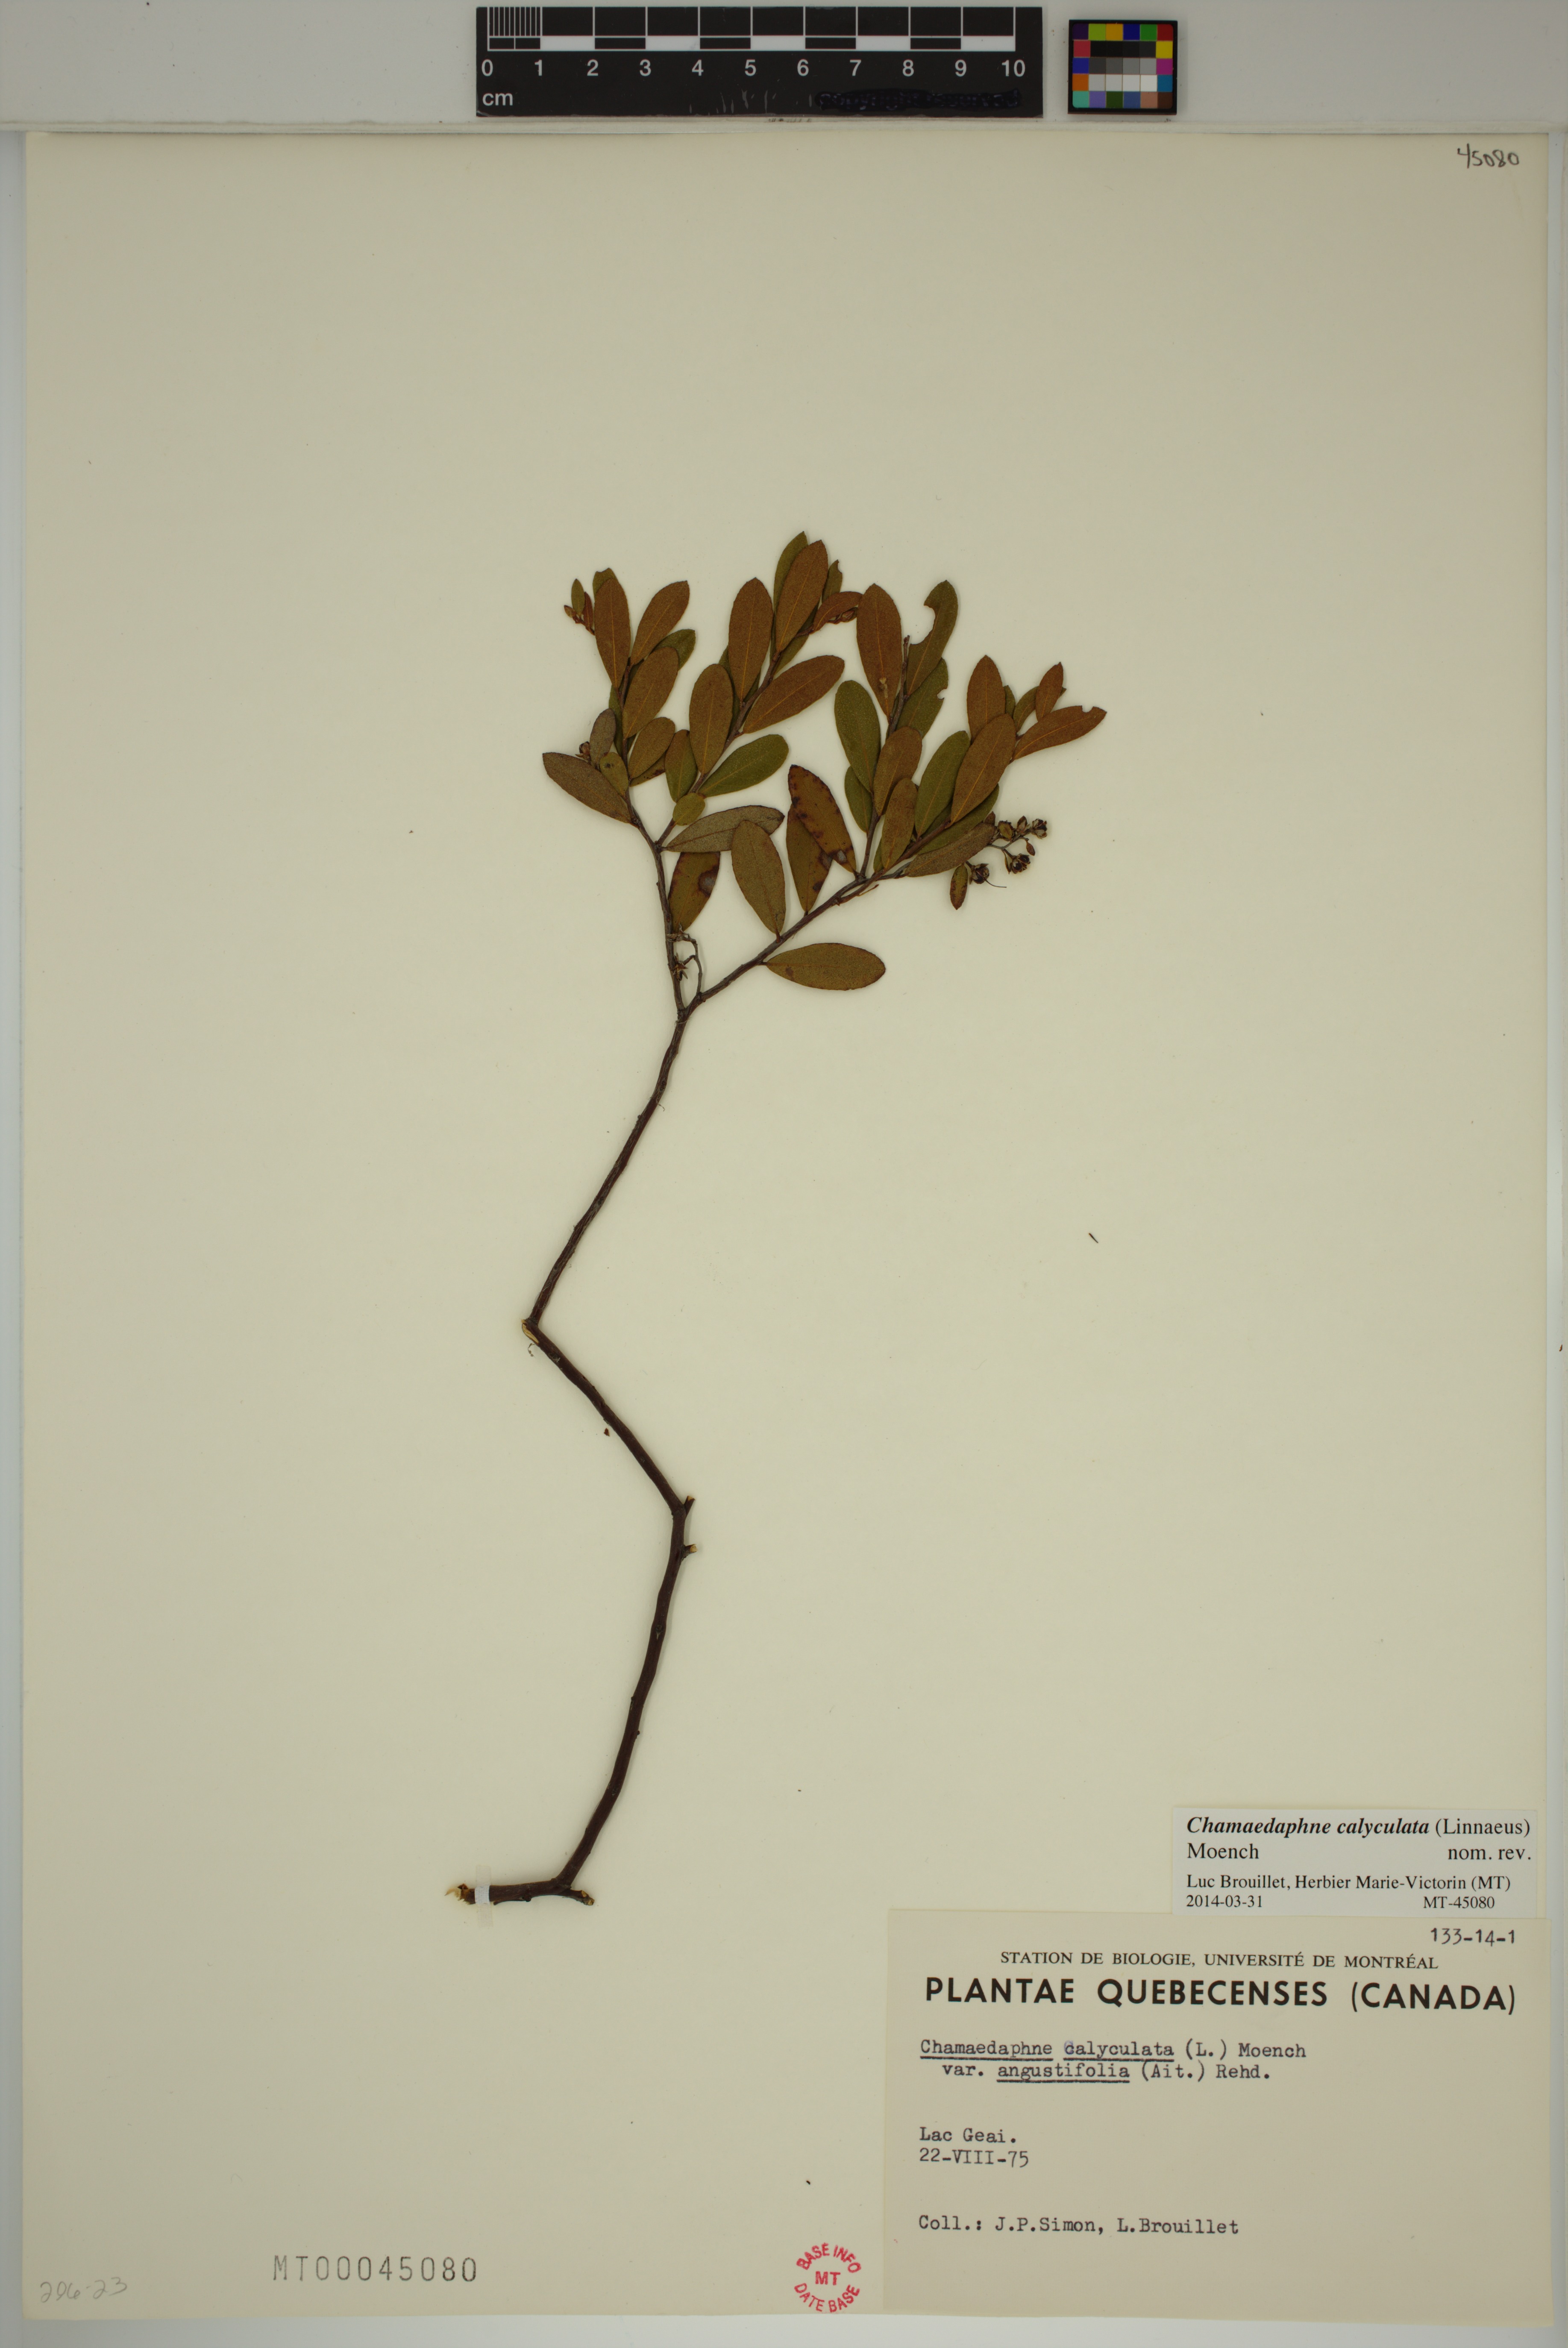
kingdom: Plantae
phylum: Tracheophyta
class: Magnoliopsida
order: Ericales
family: Ericaceae
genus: Chamaedaphne
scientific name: Chamaedaphne calyculata
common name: Leatherleaf
